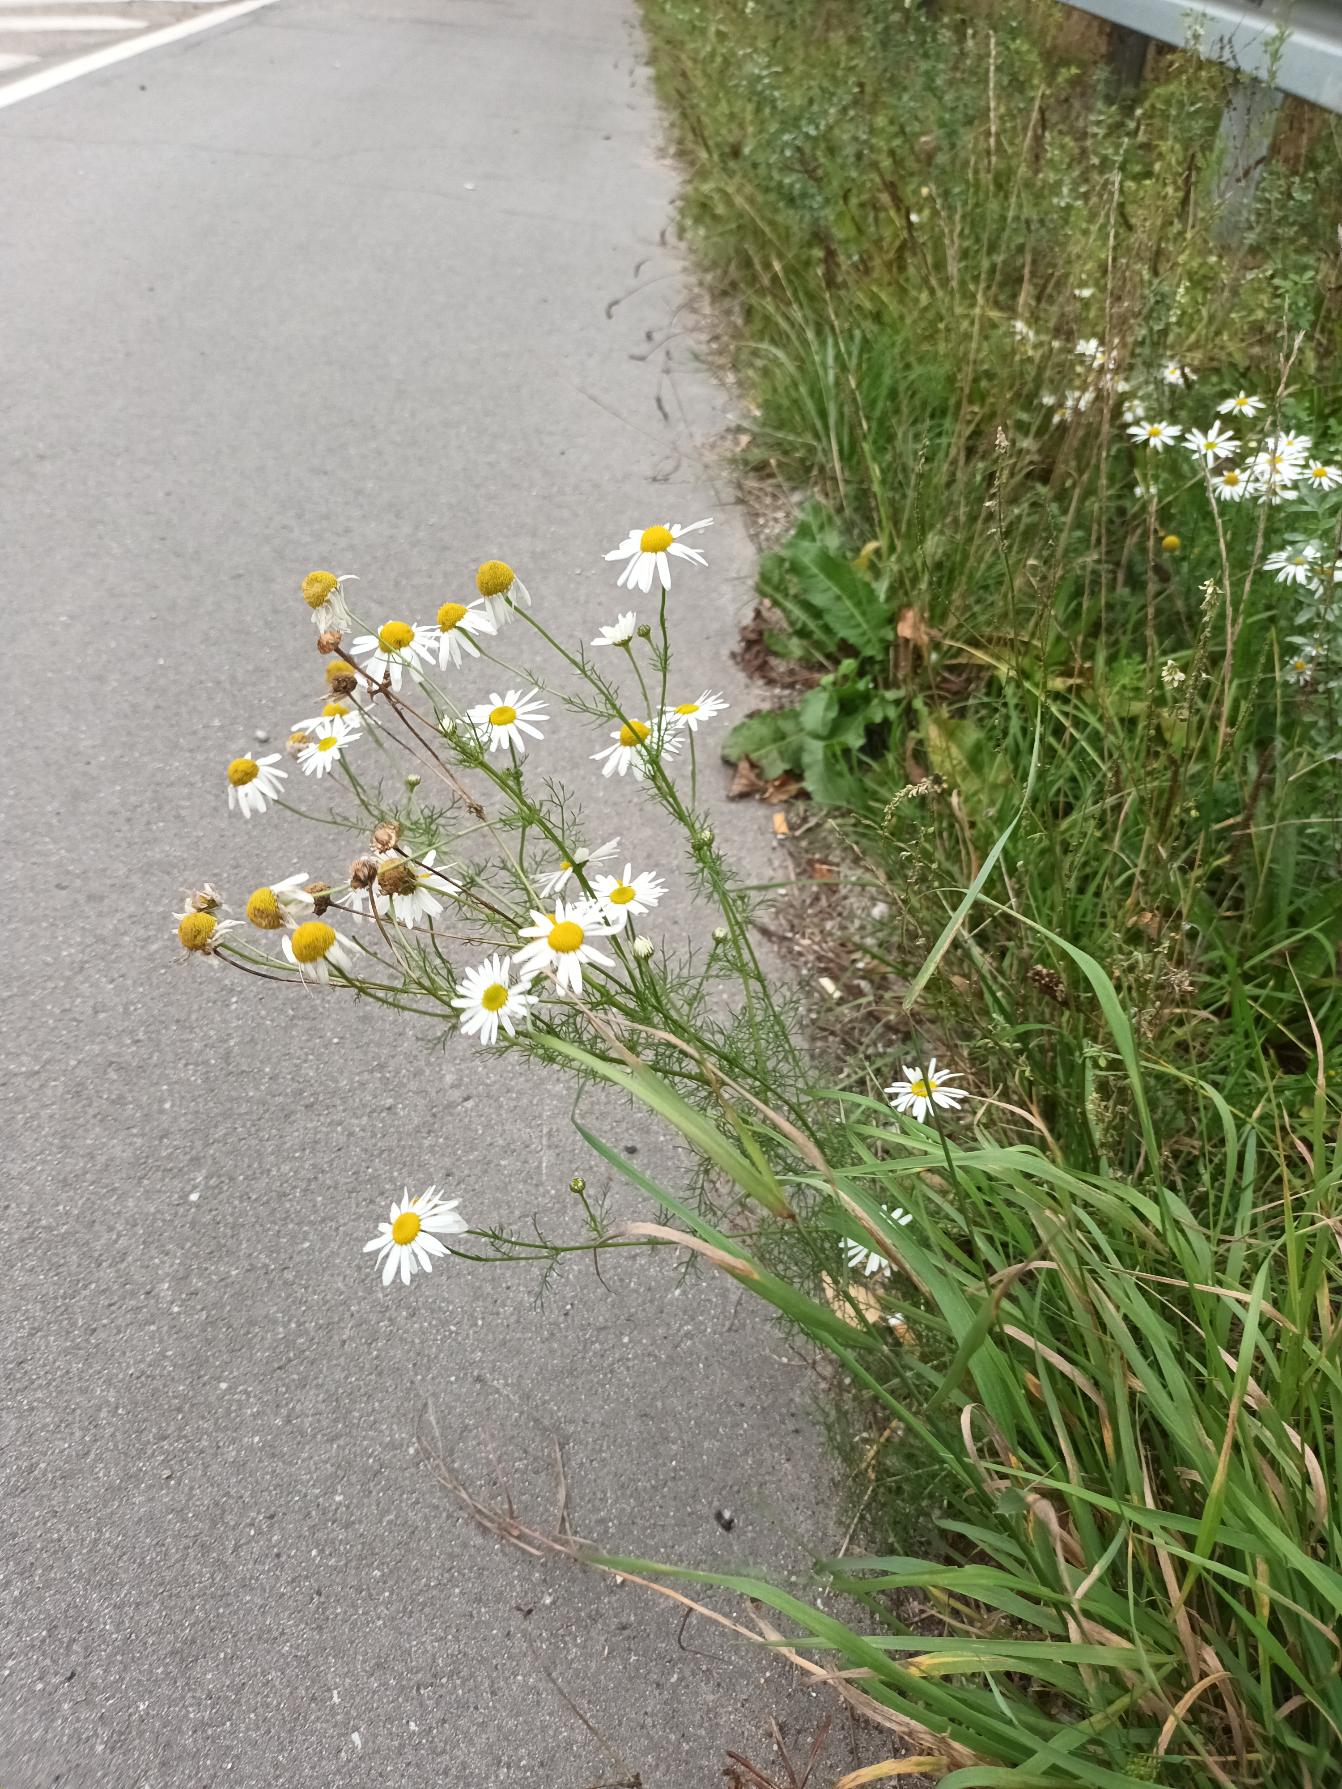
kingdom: Plantae
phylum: Tracheophyta
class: Magnoliopsida
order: Asterales
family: Asteraceae
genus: Tripleurospermum
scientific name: Tripleurospermum inodorum
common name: Lugtløs kamille
